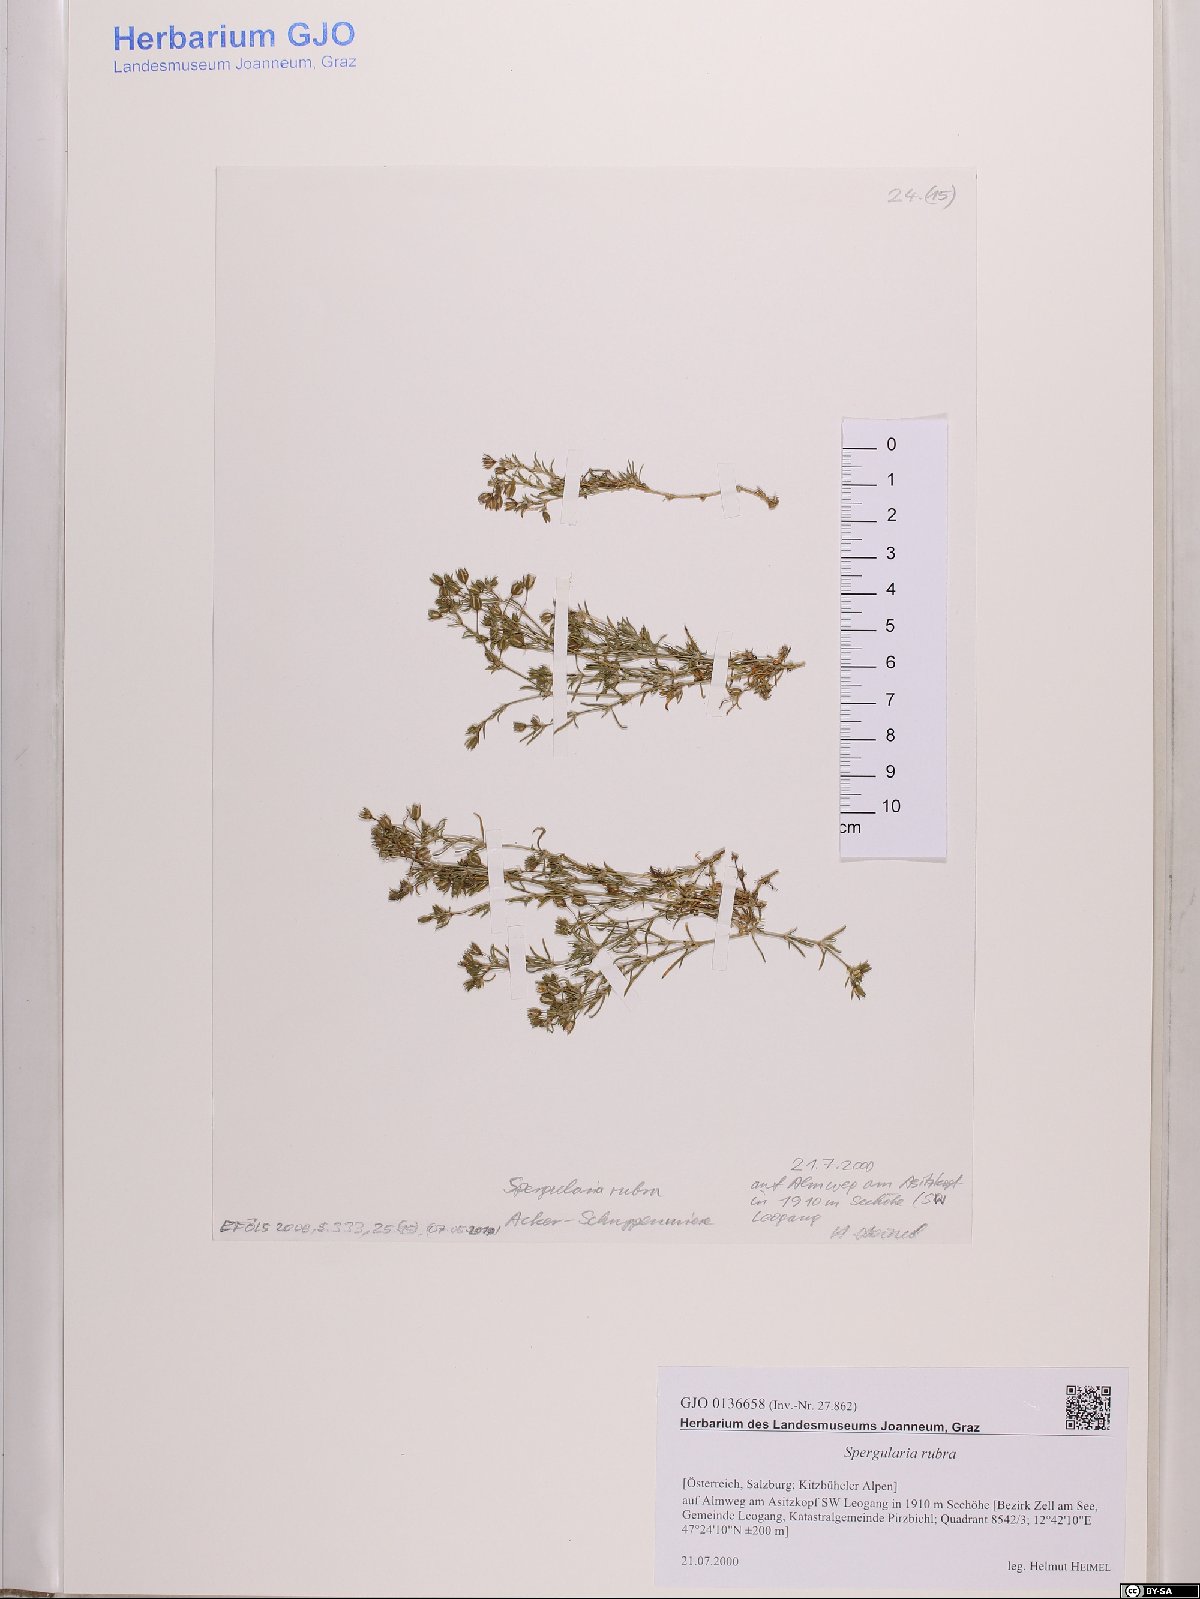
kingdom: Plantae
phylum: Tracheophyta
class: Magnoliopsida
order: Caryophyllales
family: Caryophyllaceae
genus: Spergularia
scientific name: Spergularia rubra
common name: Red sand-spurrey
